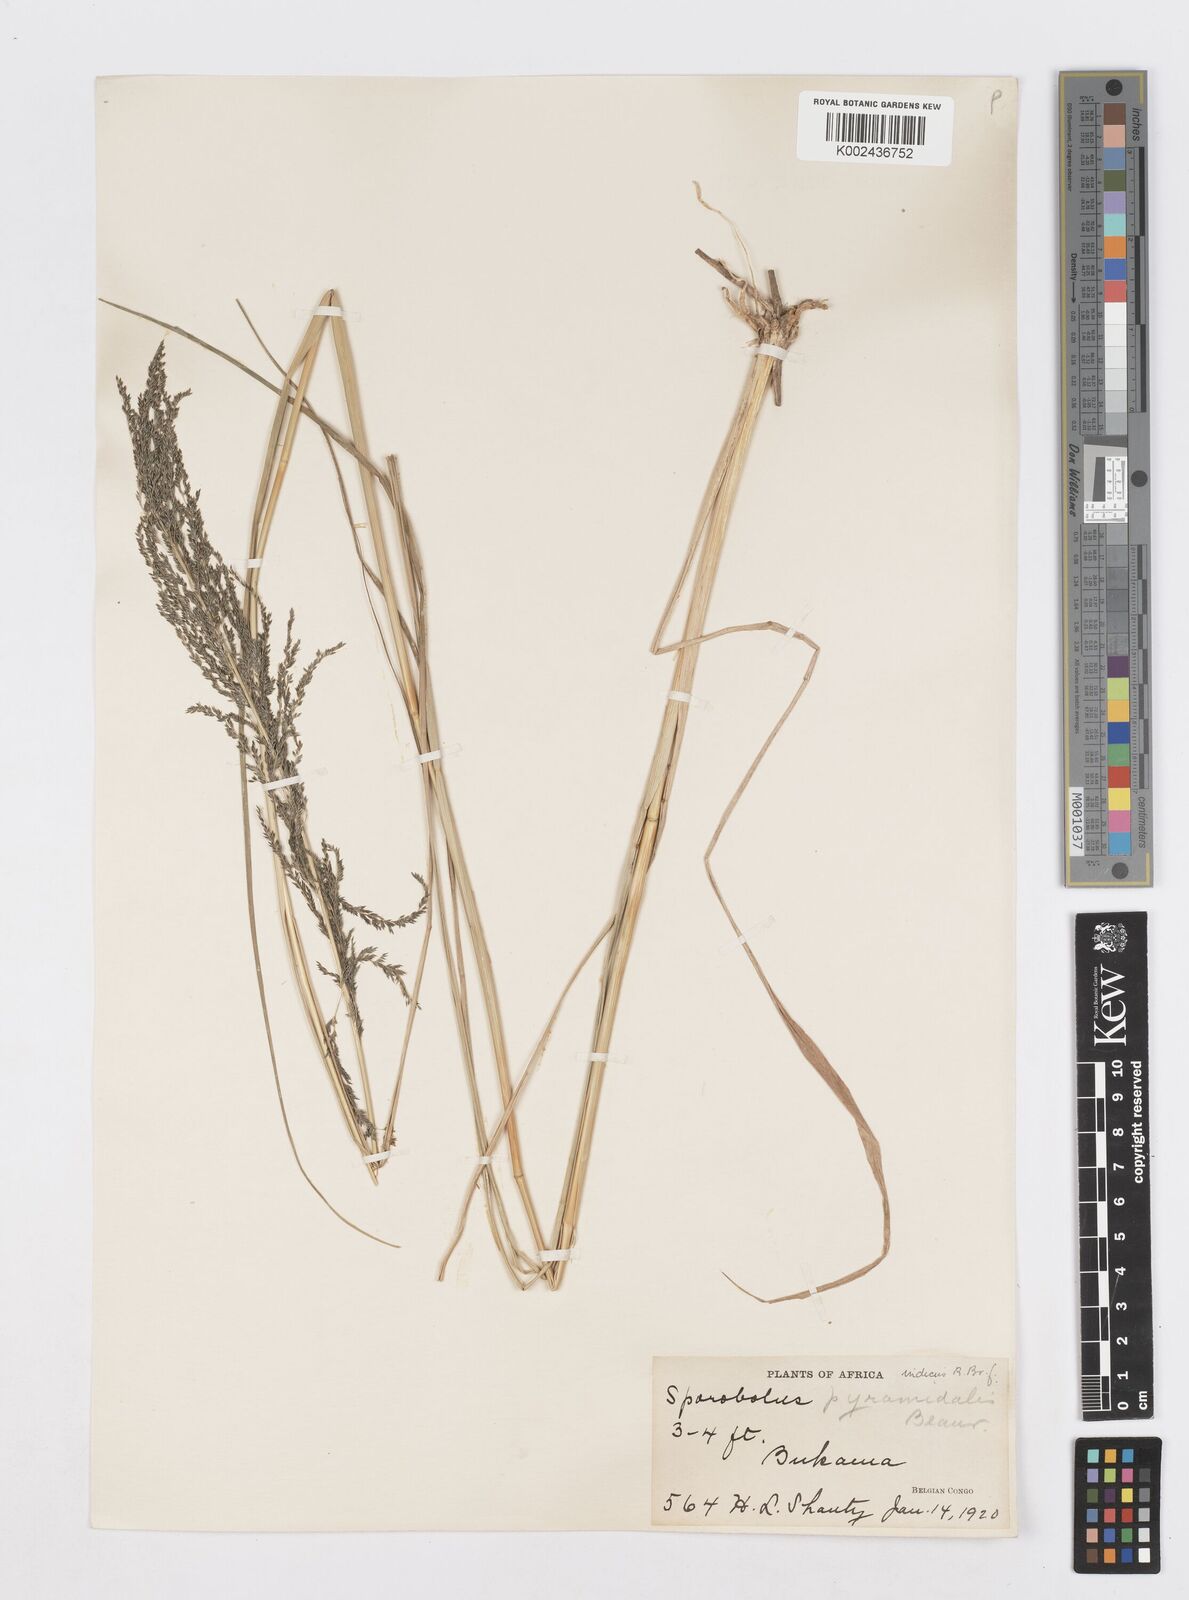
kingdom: Plantae
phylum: Tracheophyta
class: Liliopsida
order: Poales
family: Poaceae
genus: Sporobolus
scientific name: Sporobolus pyramidalis
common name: West indian dropseed
